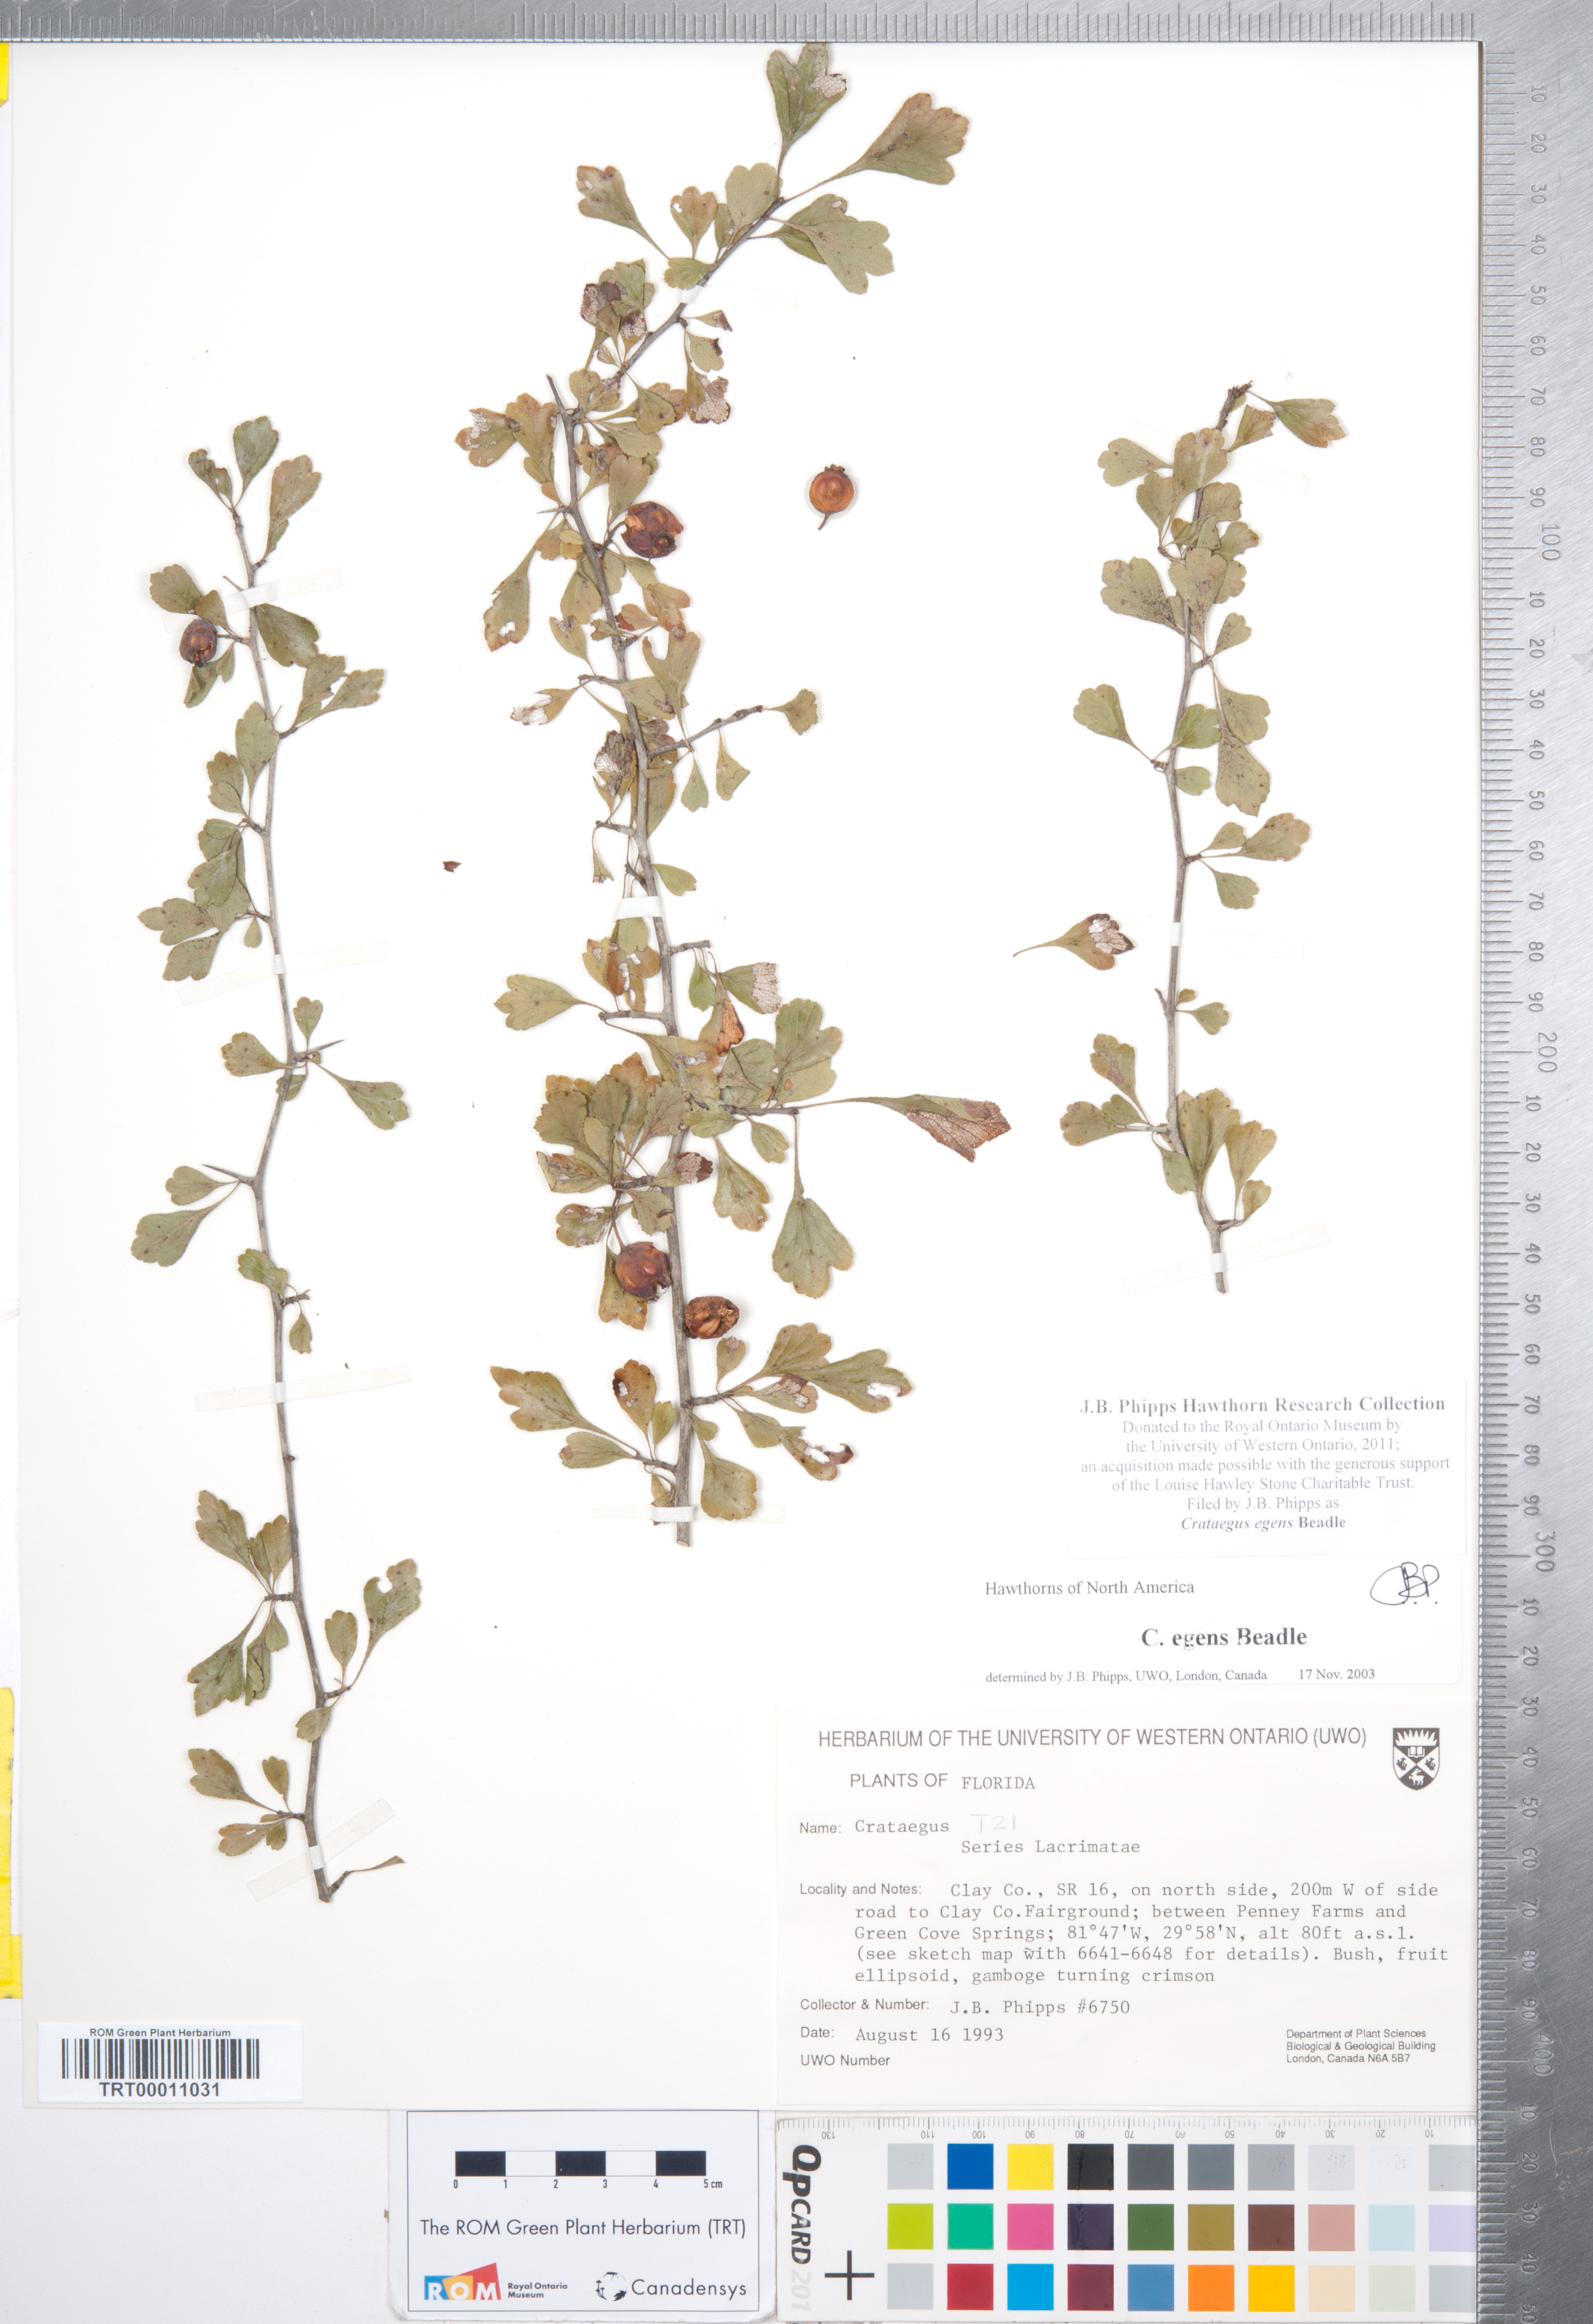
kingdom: Plantae
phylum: Tracheophyta
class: Magnoliopsida
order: Rosales
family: Rosaceae
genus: Crataegus
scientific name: Crataegus senta
